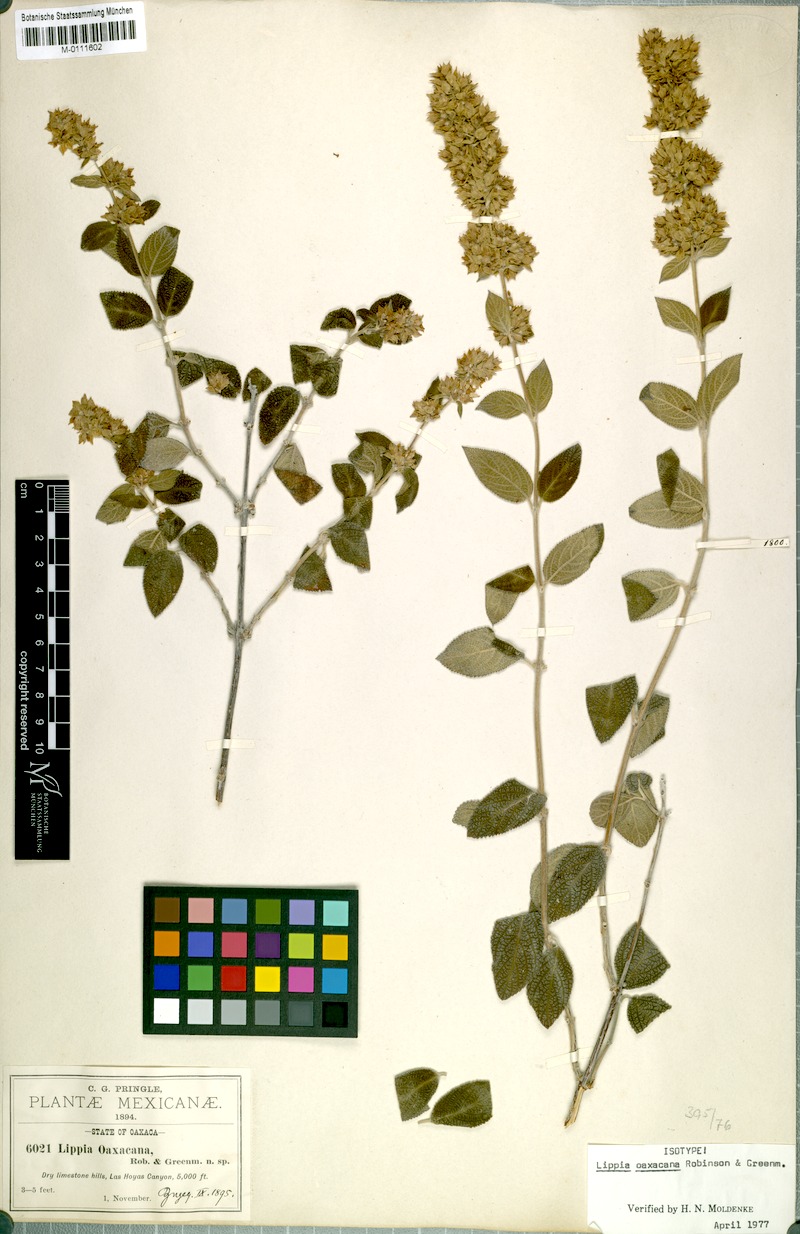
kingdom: Plantae
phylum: Tracheophyta
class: Magnoliopsida
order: Lamiales
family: Verbenaceae
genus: Lippia
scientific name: Lippia oaxacana
